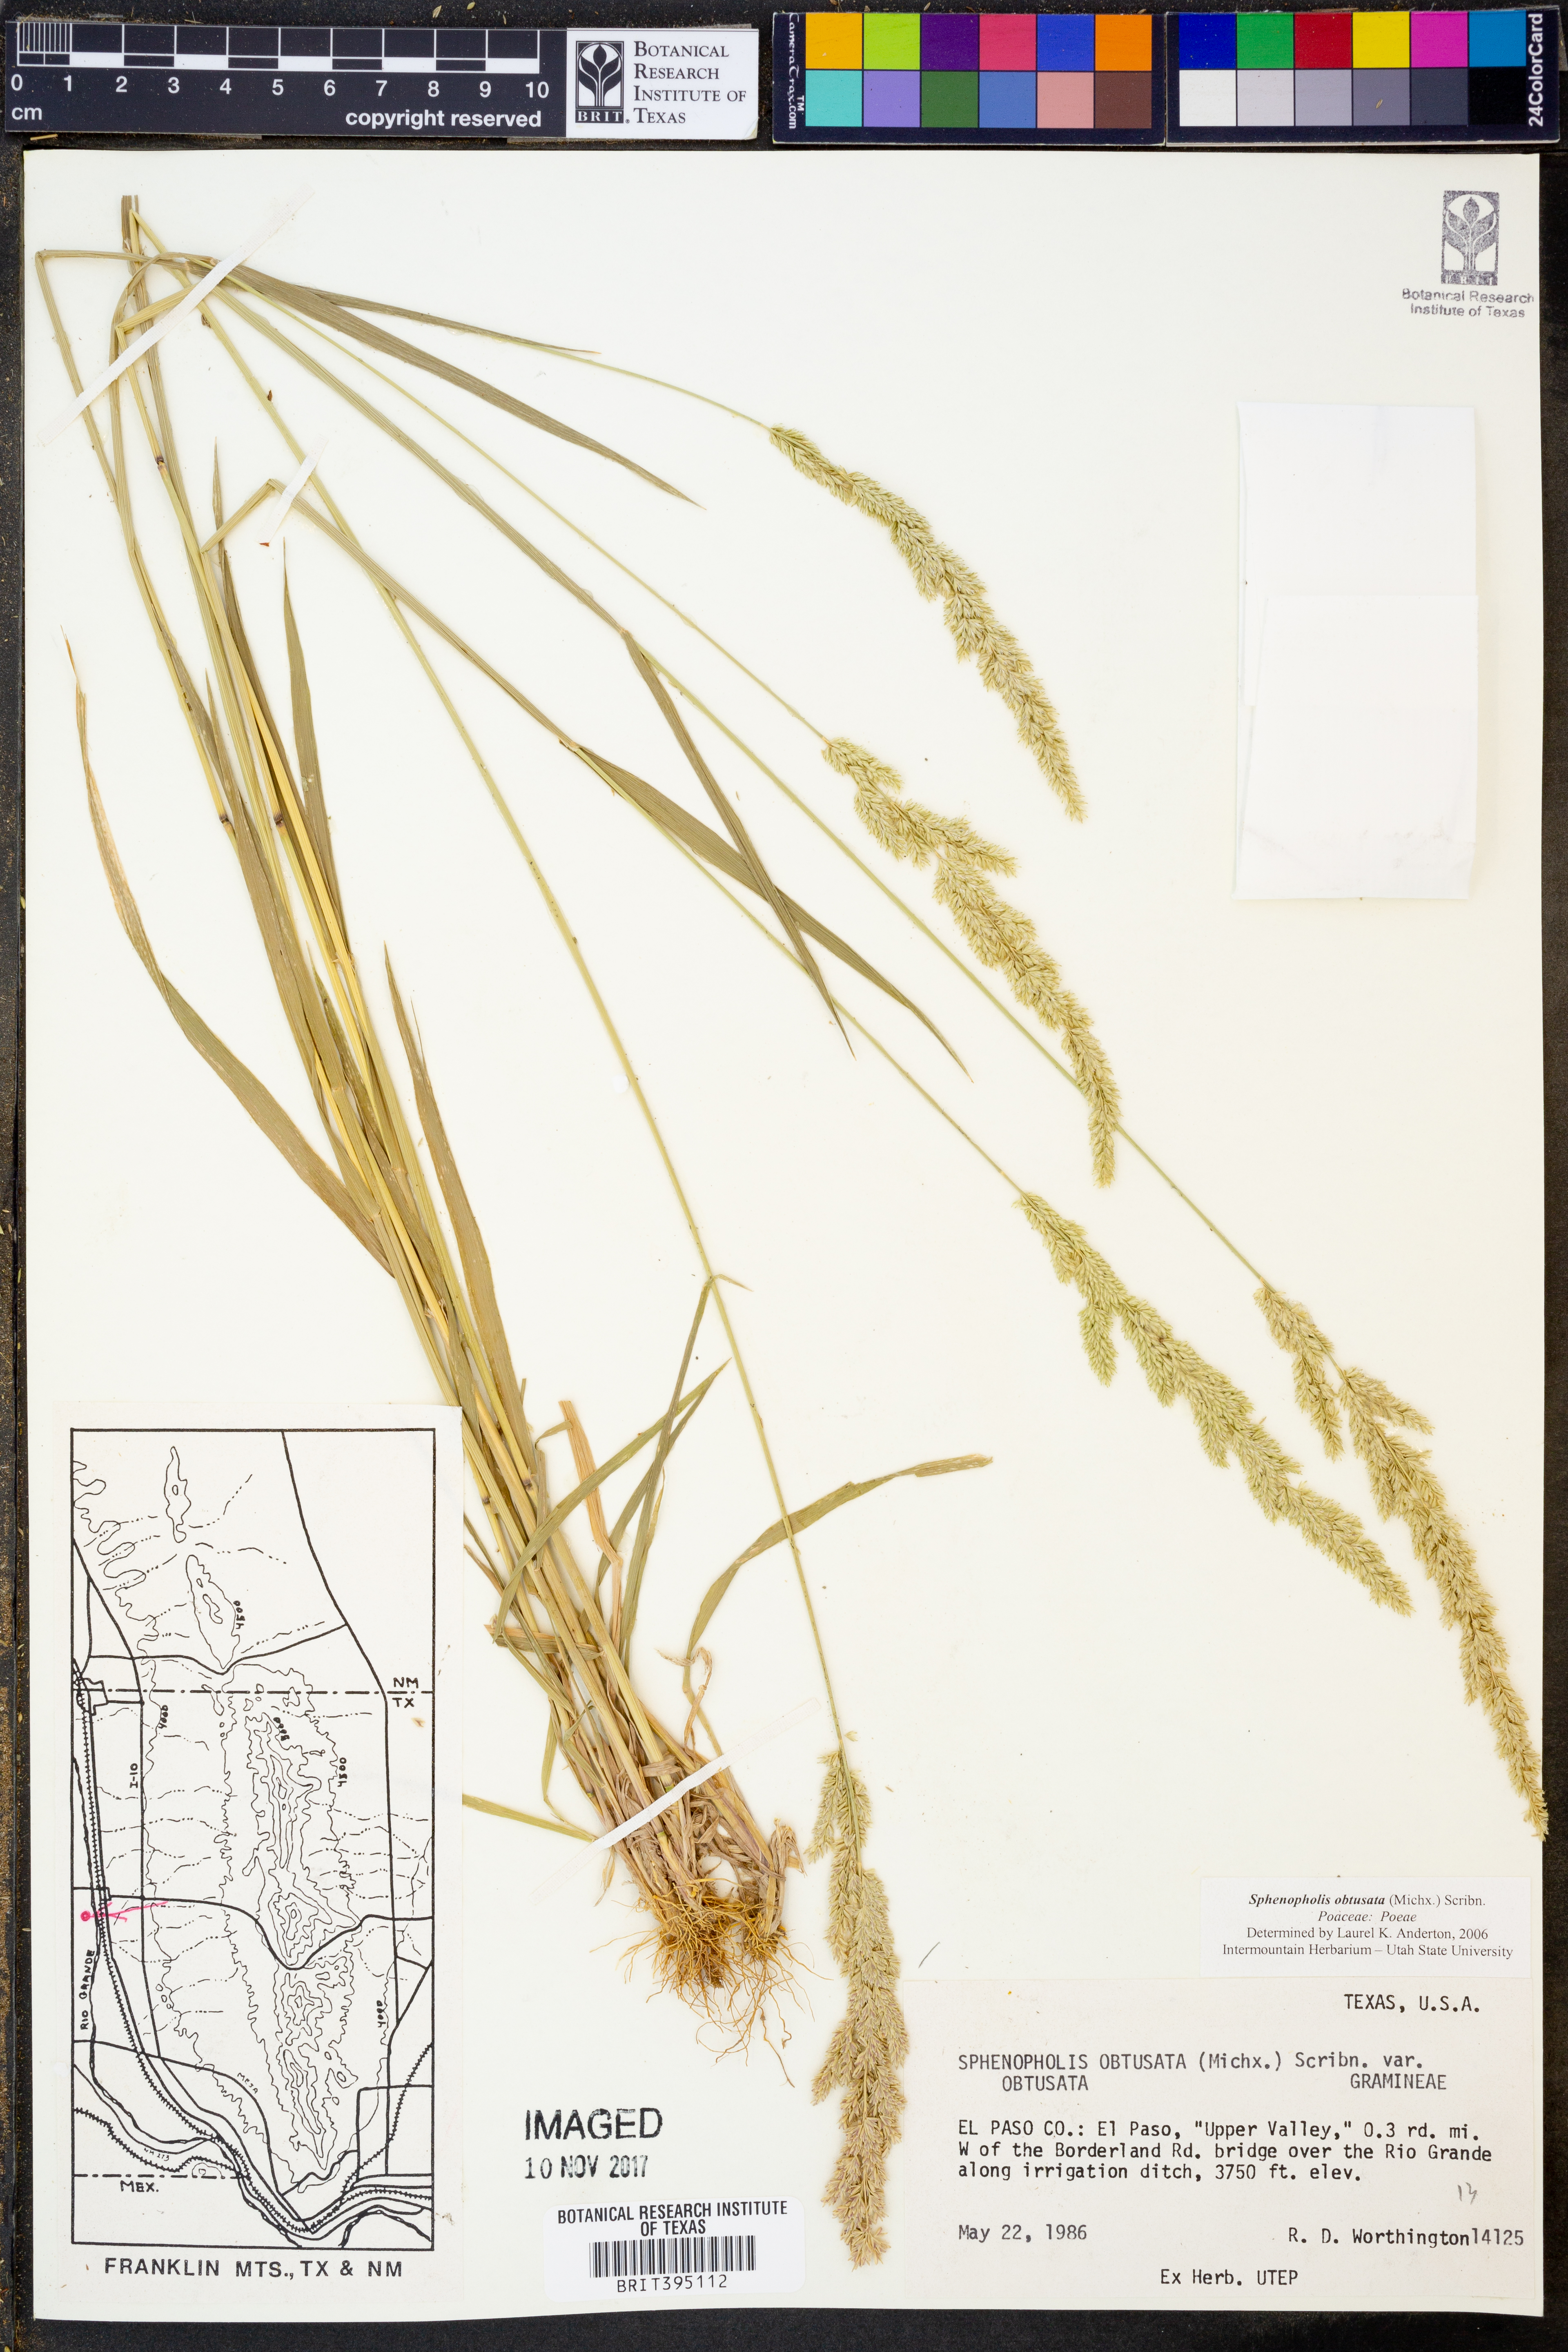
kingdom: Plantae
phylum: Tracheophyta
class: Liliopsida
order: Poales
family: Poaceae
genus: Sphenopholis
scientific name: Sphenopholis obtusata
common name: Prairie grass
